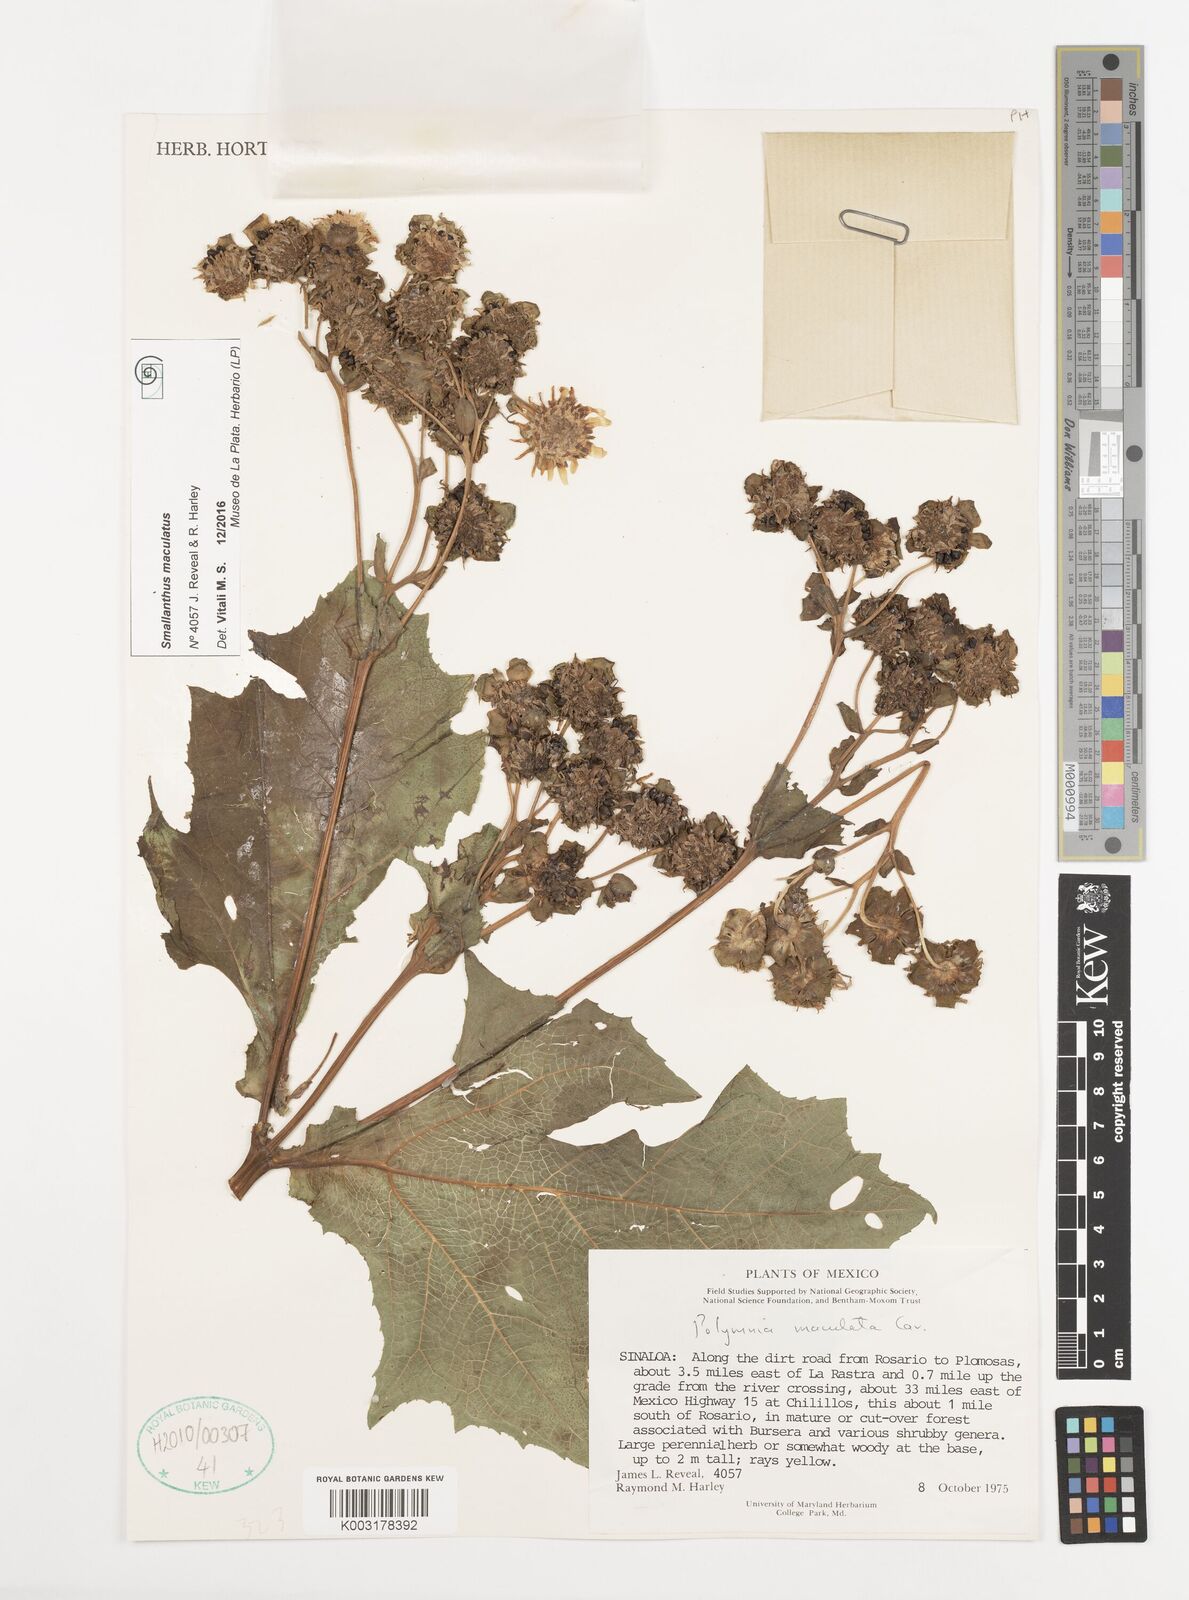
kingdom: Plantae
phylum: Tracheophyta
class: Magnoliopsida
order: Asterales
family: Asteraceae
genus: Smallanthus
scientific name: Smallanthus maculatus
